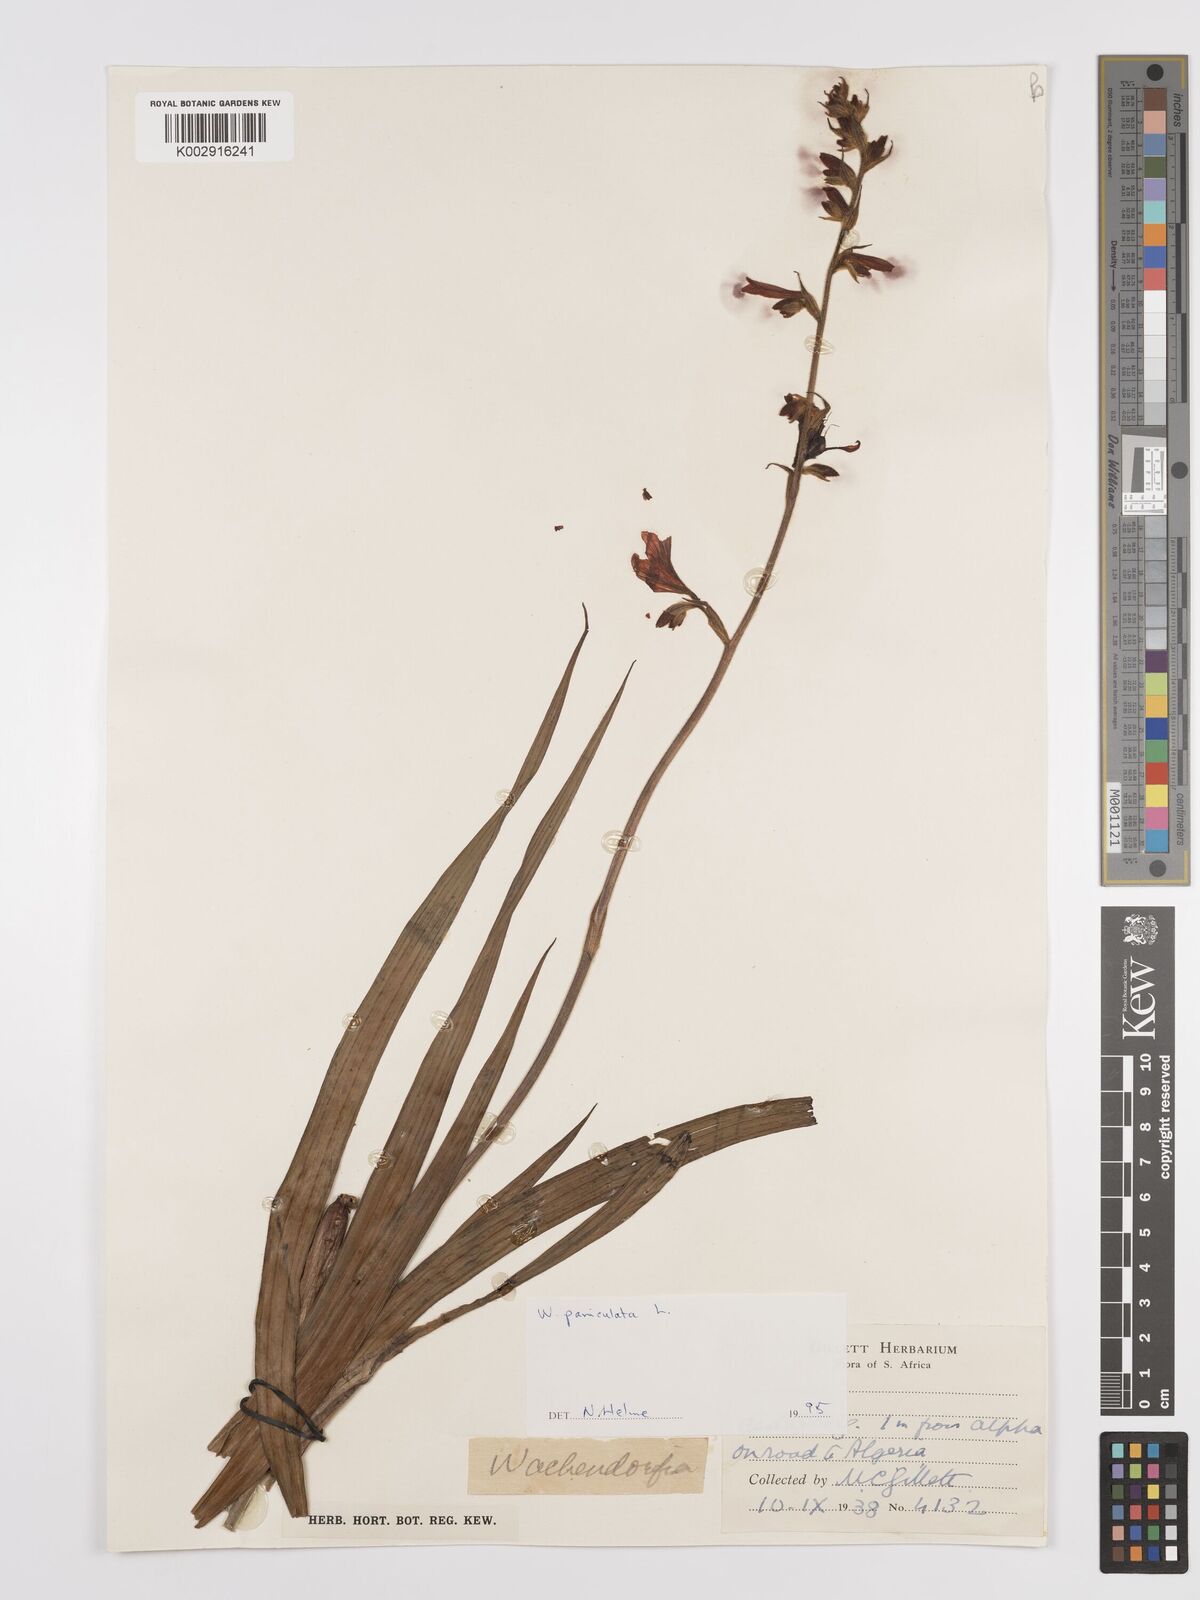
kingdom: Plantae
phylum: Tracheophyta
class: Liliopsida
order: Commelinales
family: Haemodoraceae
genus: Wachendorfia
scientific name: Wachendorfia paniculata
